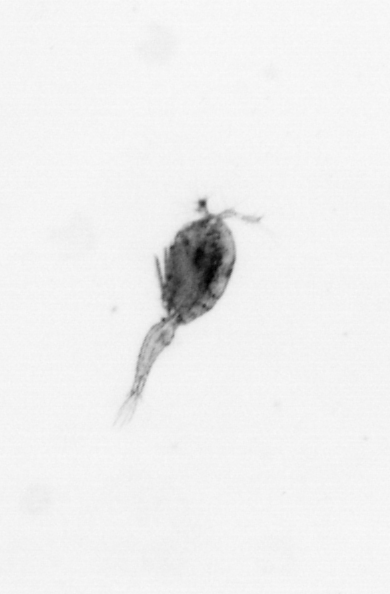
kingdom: Animalia
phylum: Arthropoda
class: Copepoda
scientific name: Copepoda
